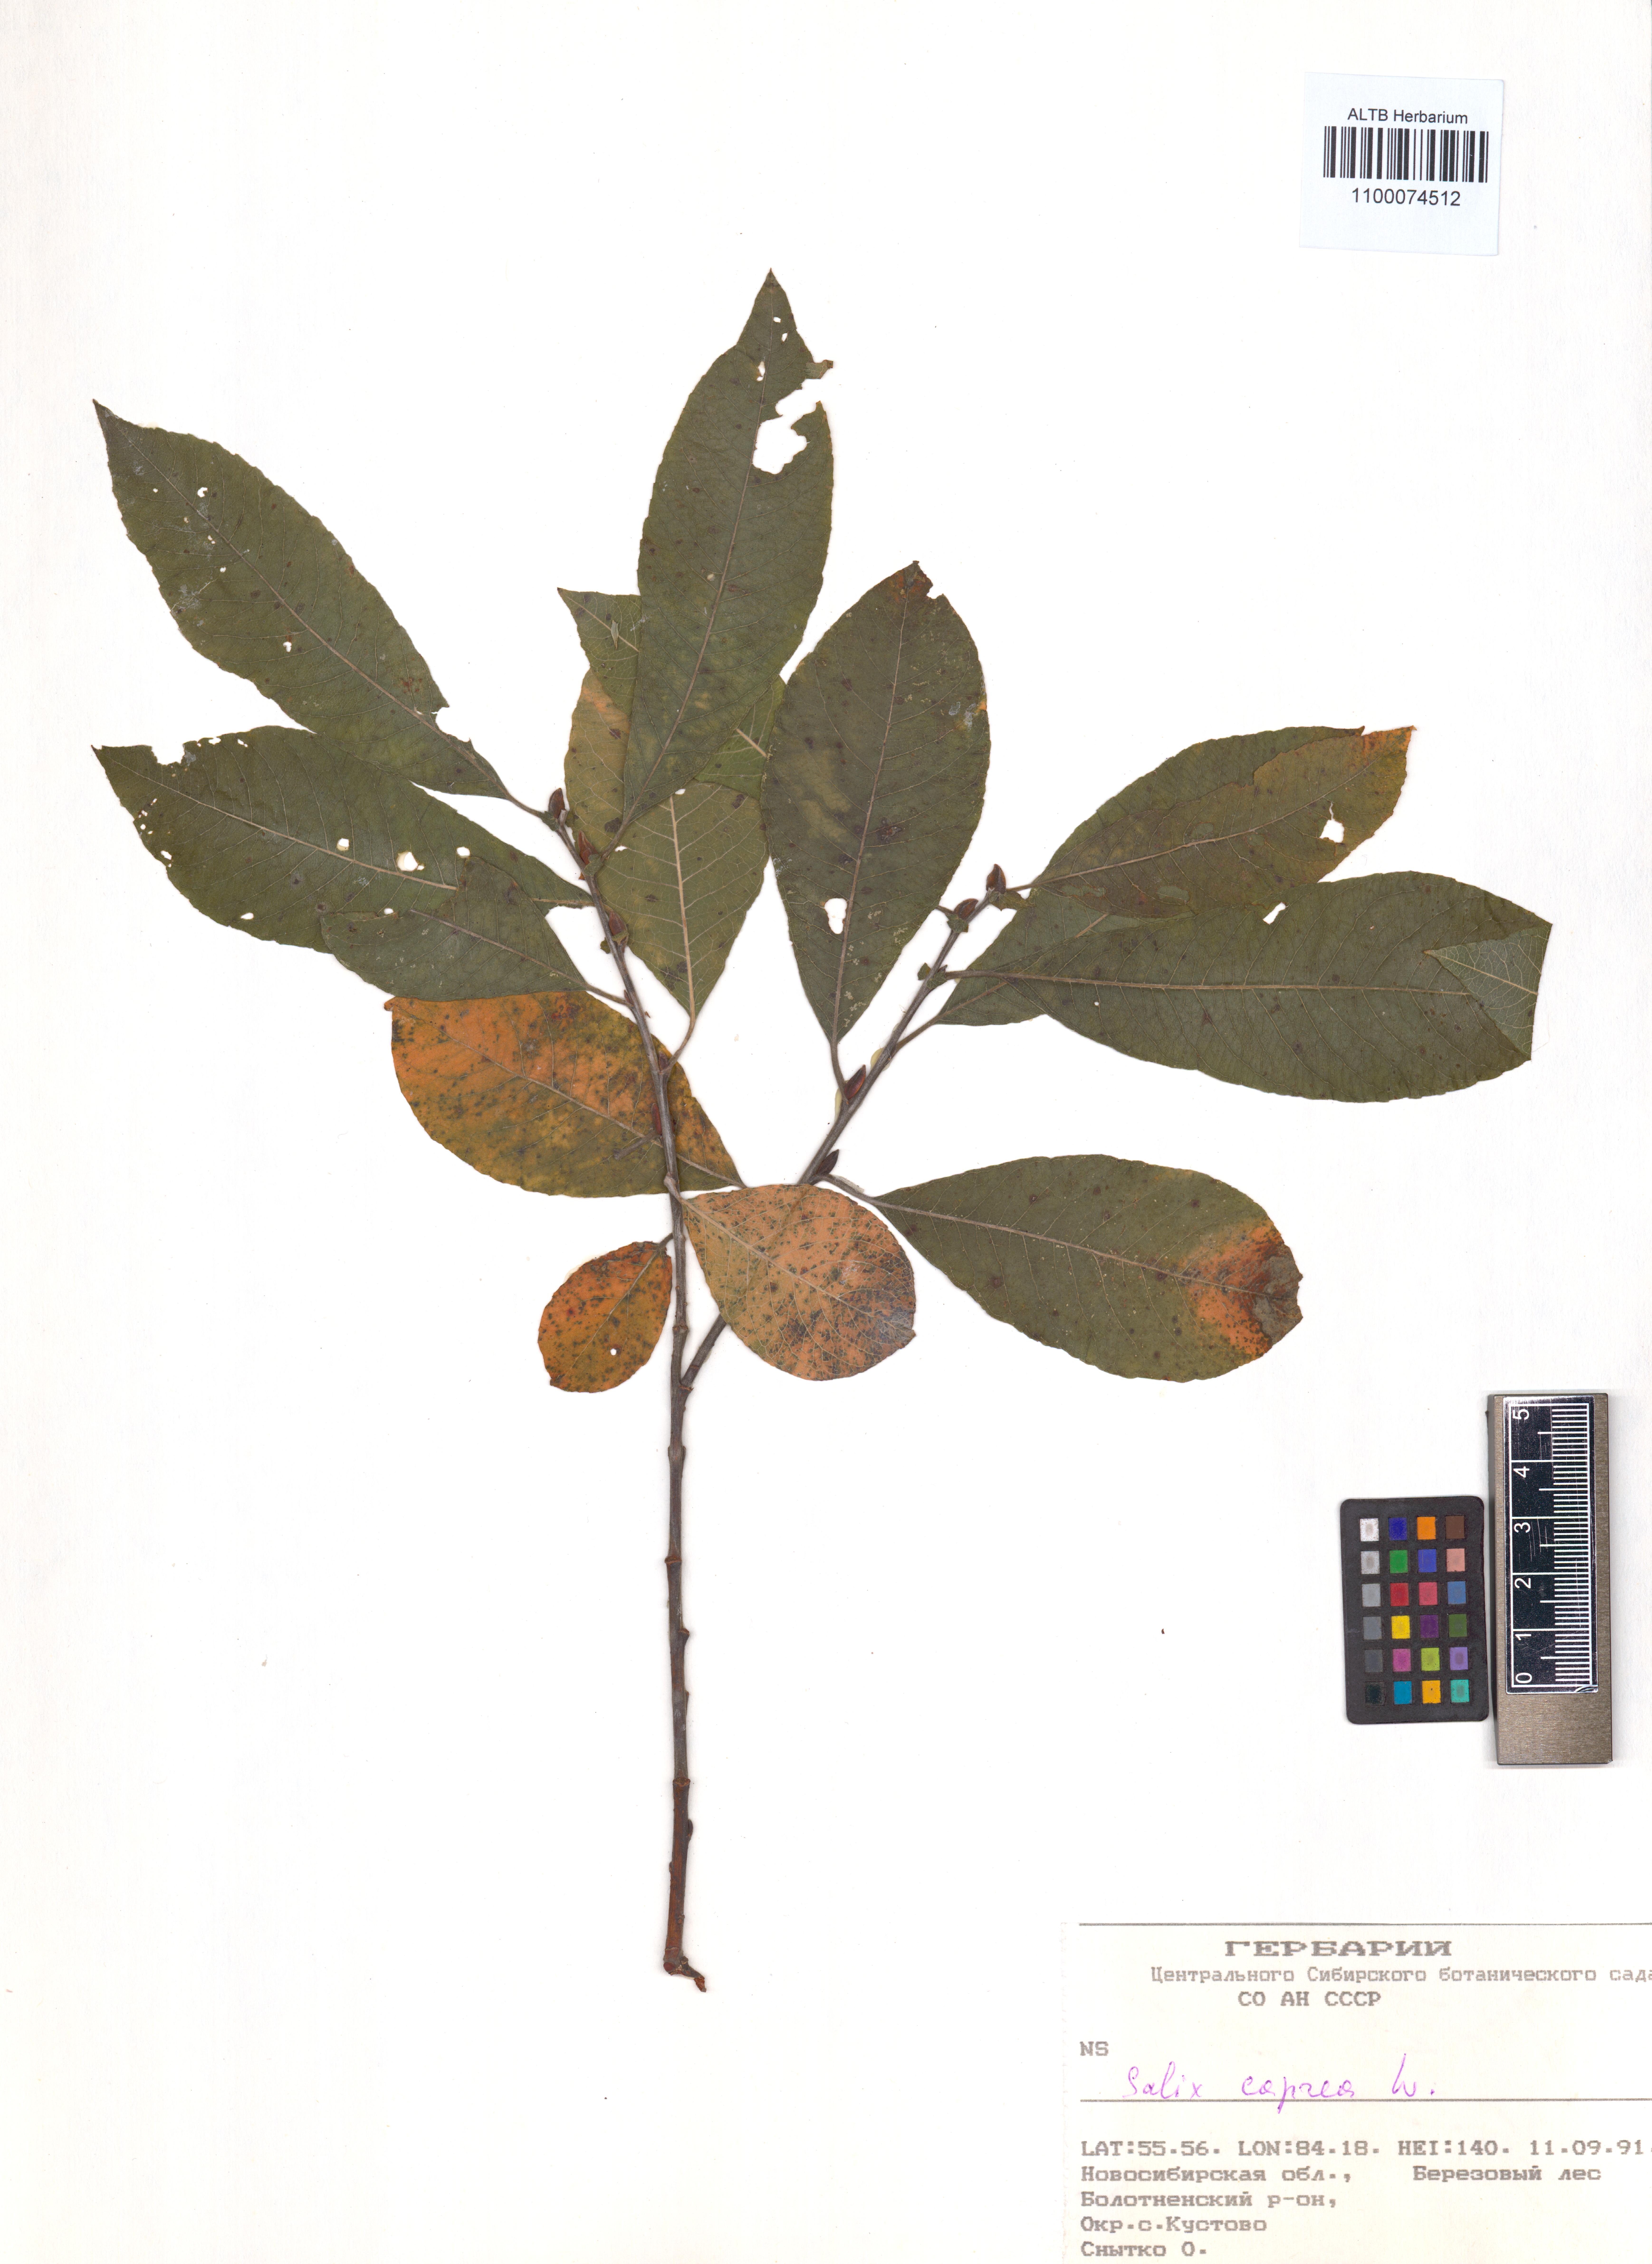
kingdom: Plantae
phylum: Tracheophyta
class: Magnoliopsida
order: Malpighiales
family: Salicaceae
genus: Salix
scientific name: Salix caprea
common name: Goat willow
